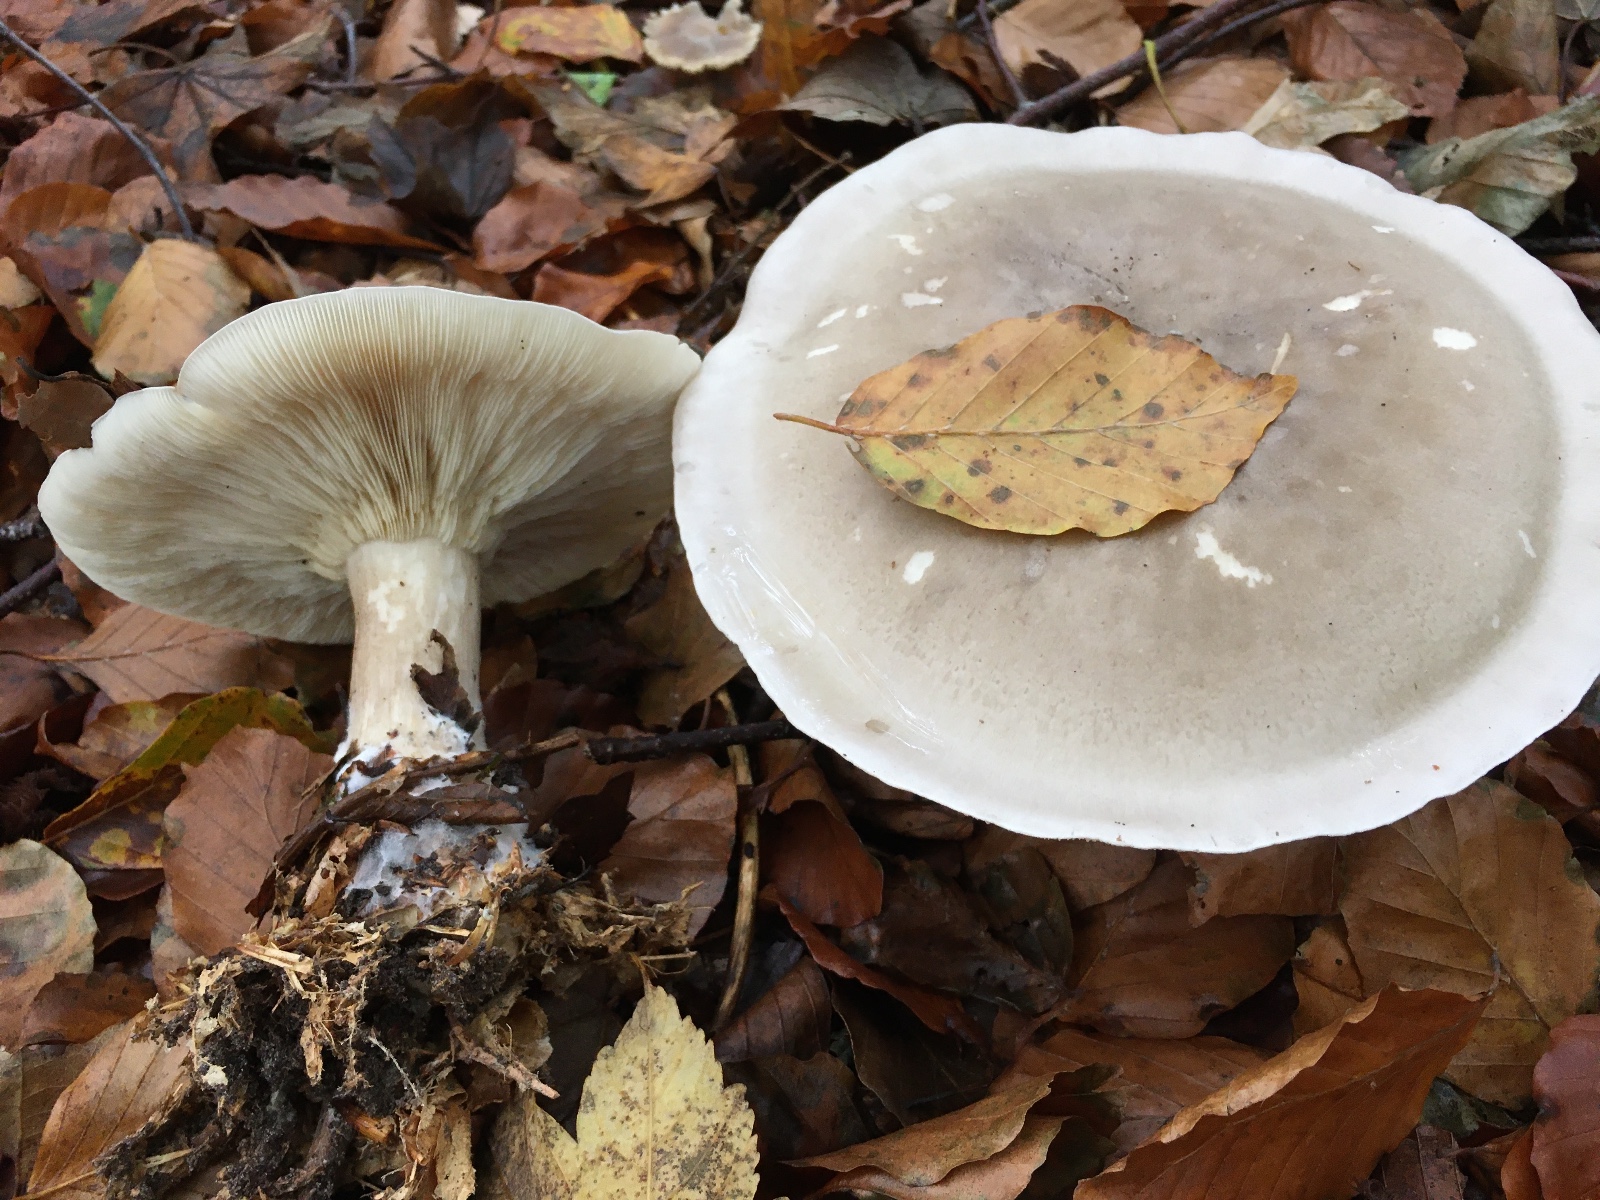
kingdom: Fungi
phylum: Basidiomycota
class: Agaricomycetes
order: Agaricales
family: Tricholomataceae
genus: Clitocybe
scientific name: Clitocybe nebularis
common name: tåge-tragthat
